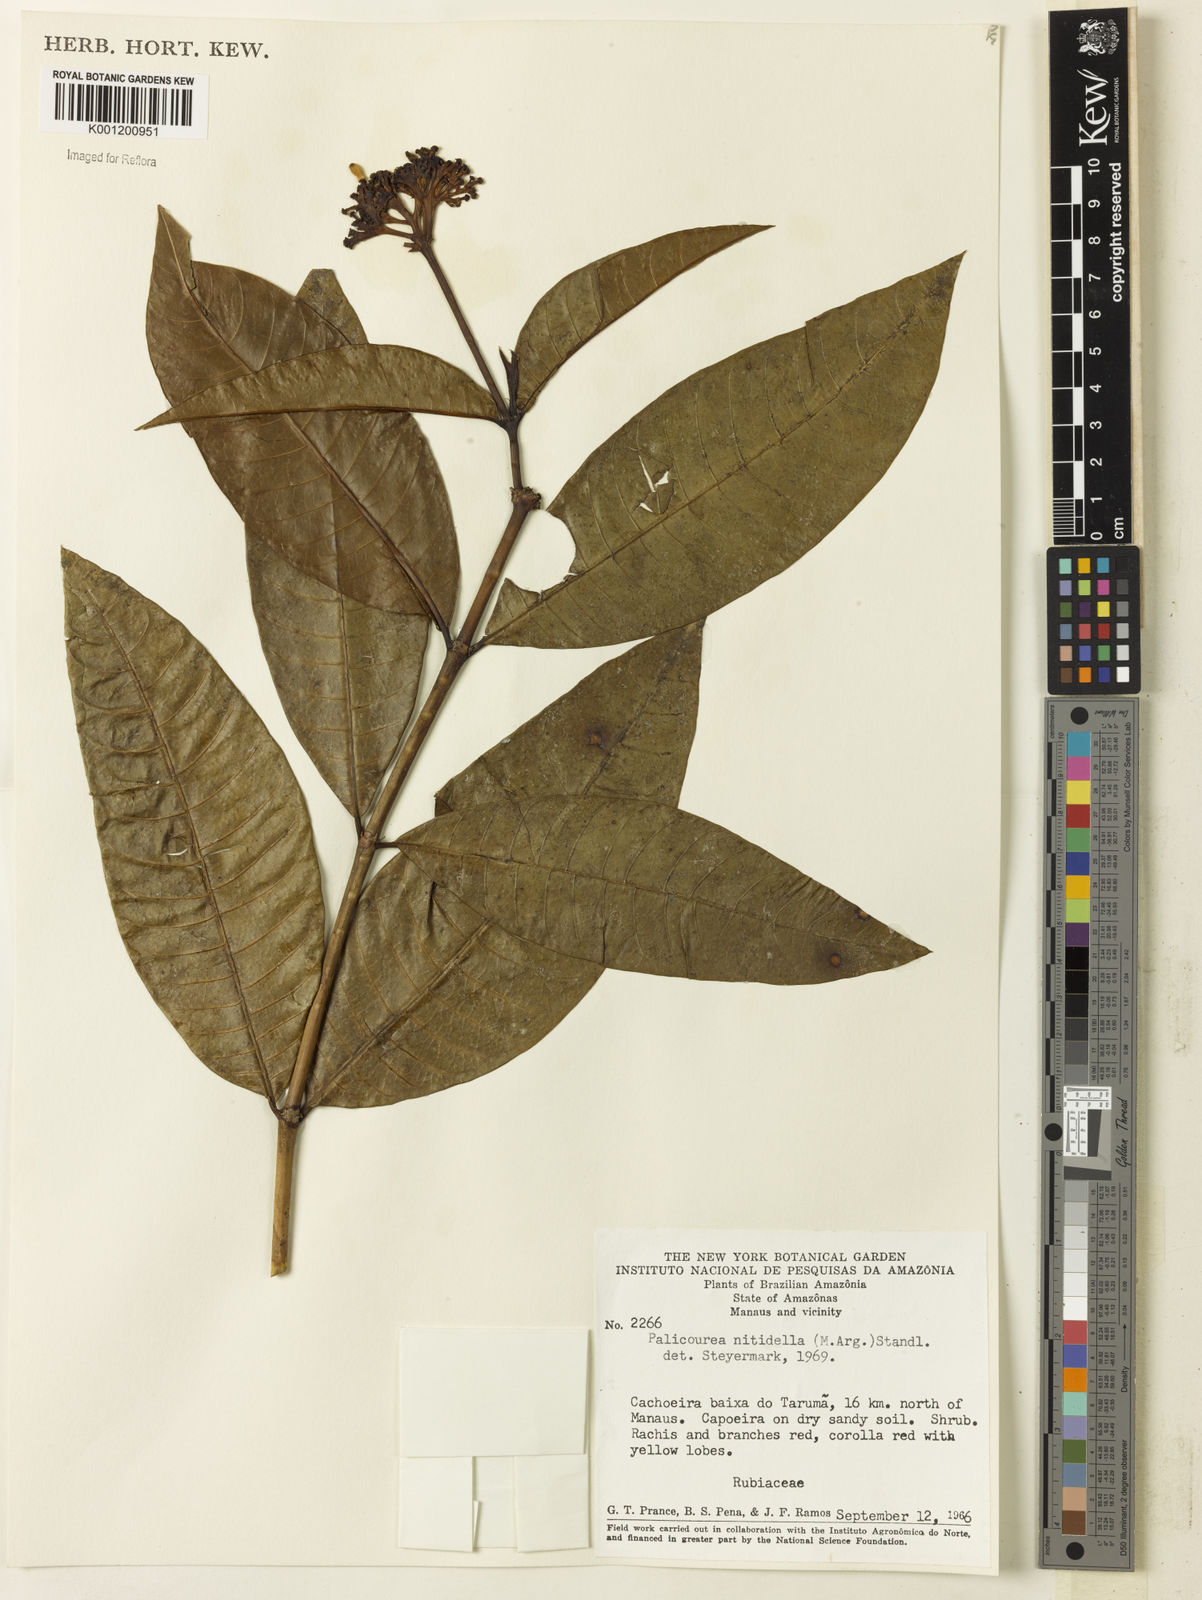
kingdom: Plantae
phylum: Tracheophyta
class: Magnoliopsida
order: Gentianales
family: Rubiaceae
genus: Palicourea
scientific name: Palicourea
